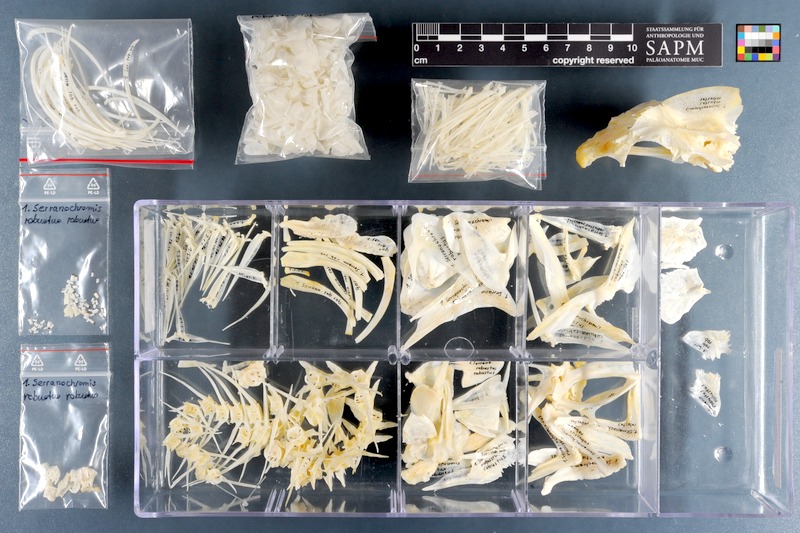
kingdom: Animalia
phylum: Chordata
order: Perciformes
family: Cichlidae
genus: Serranochromis
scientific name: Serranochromis robustus
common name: Yellow-belly bream
